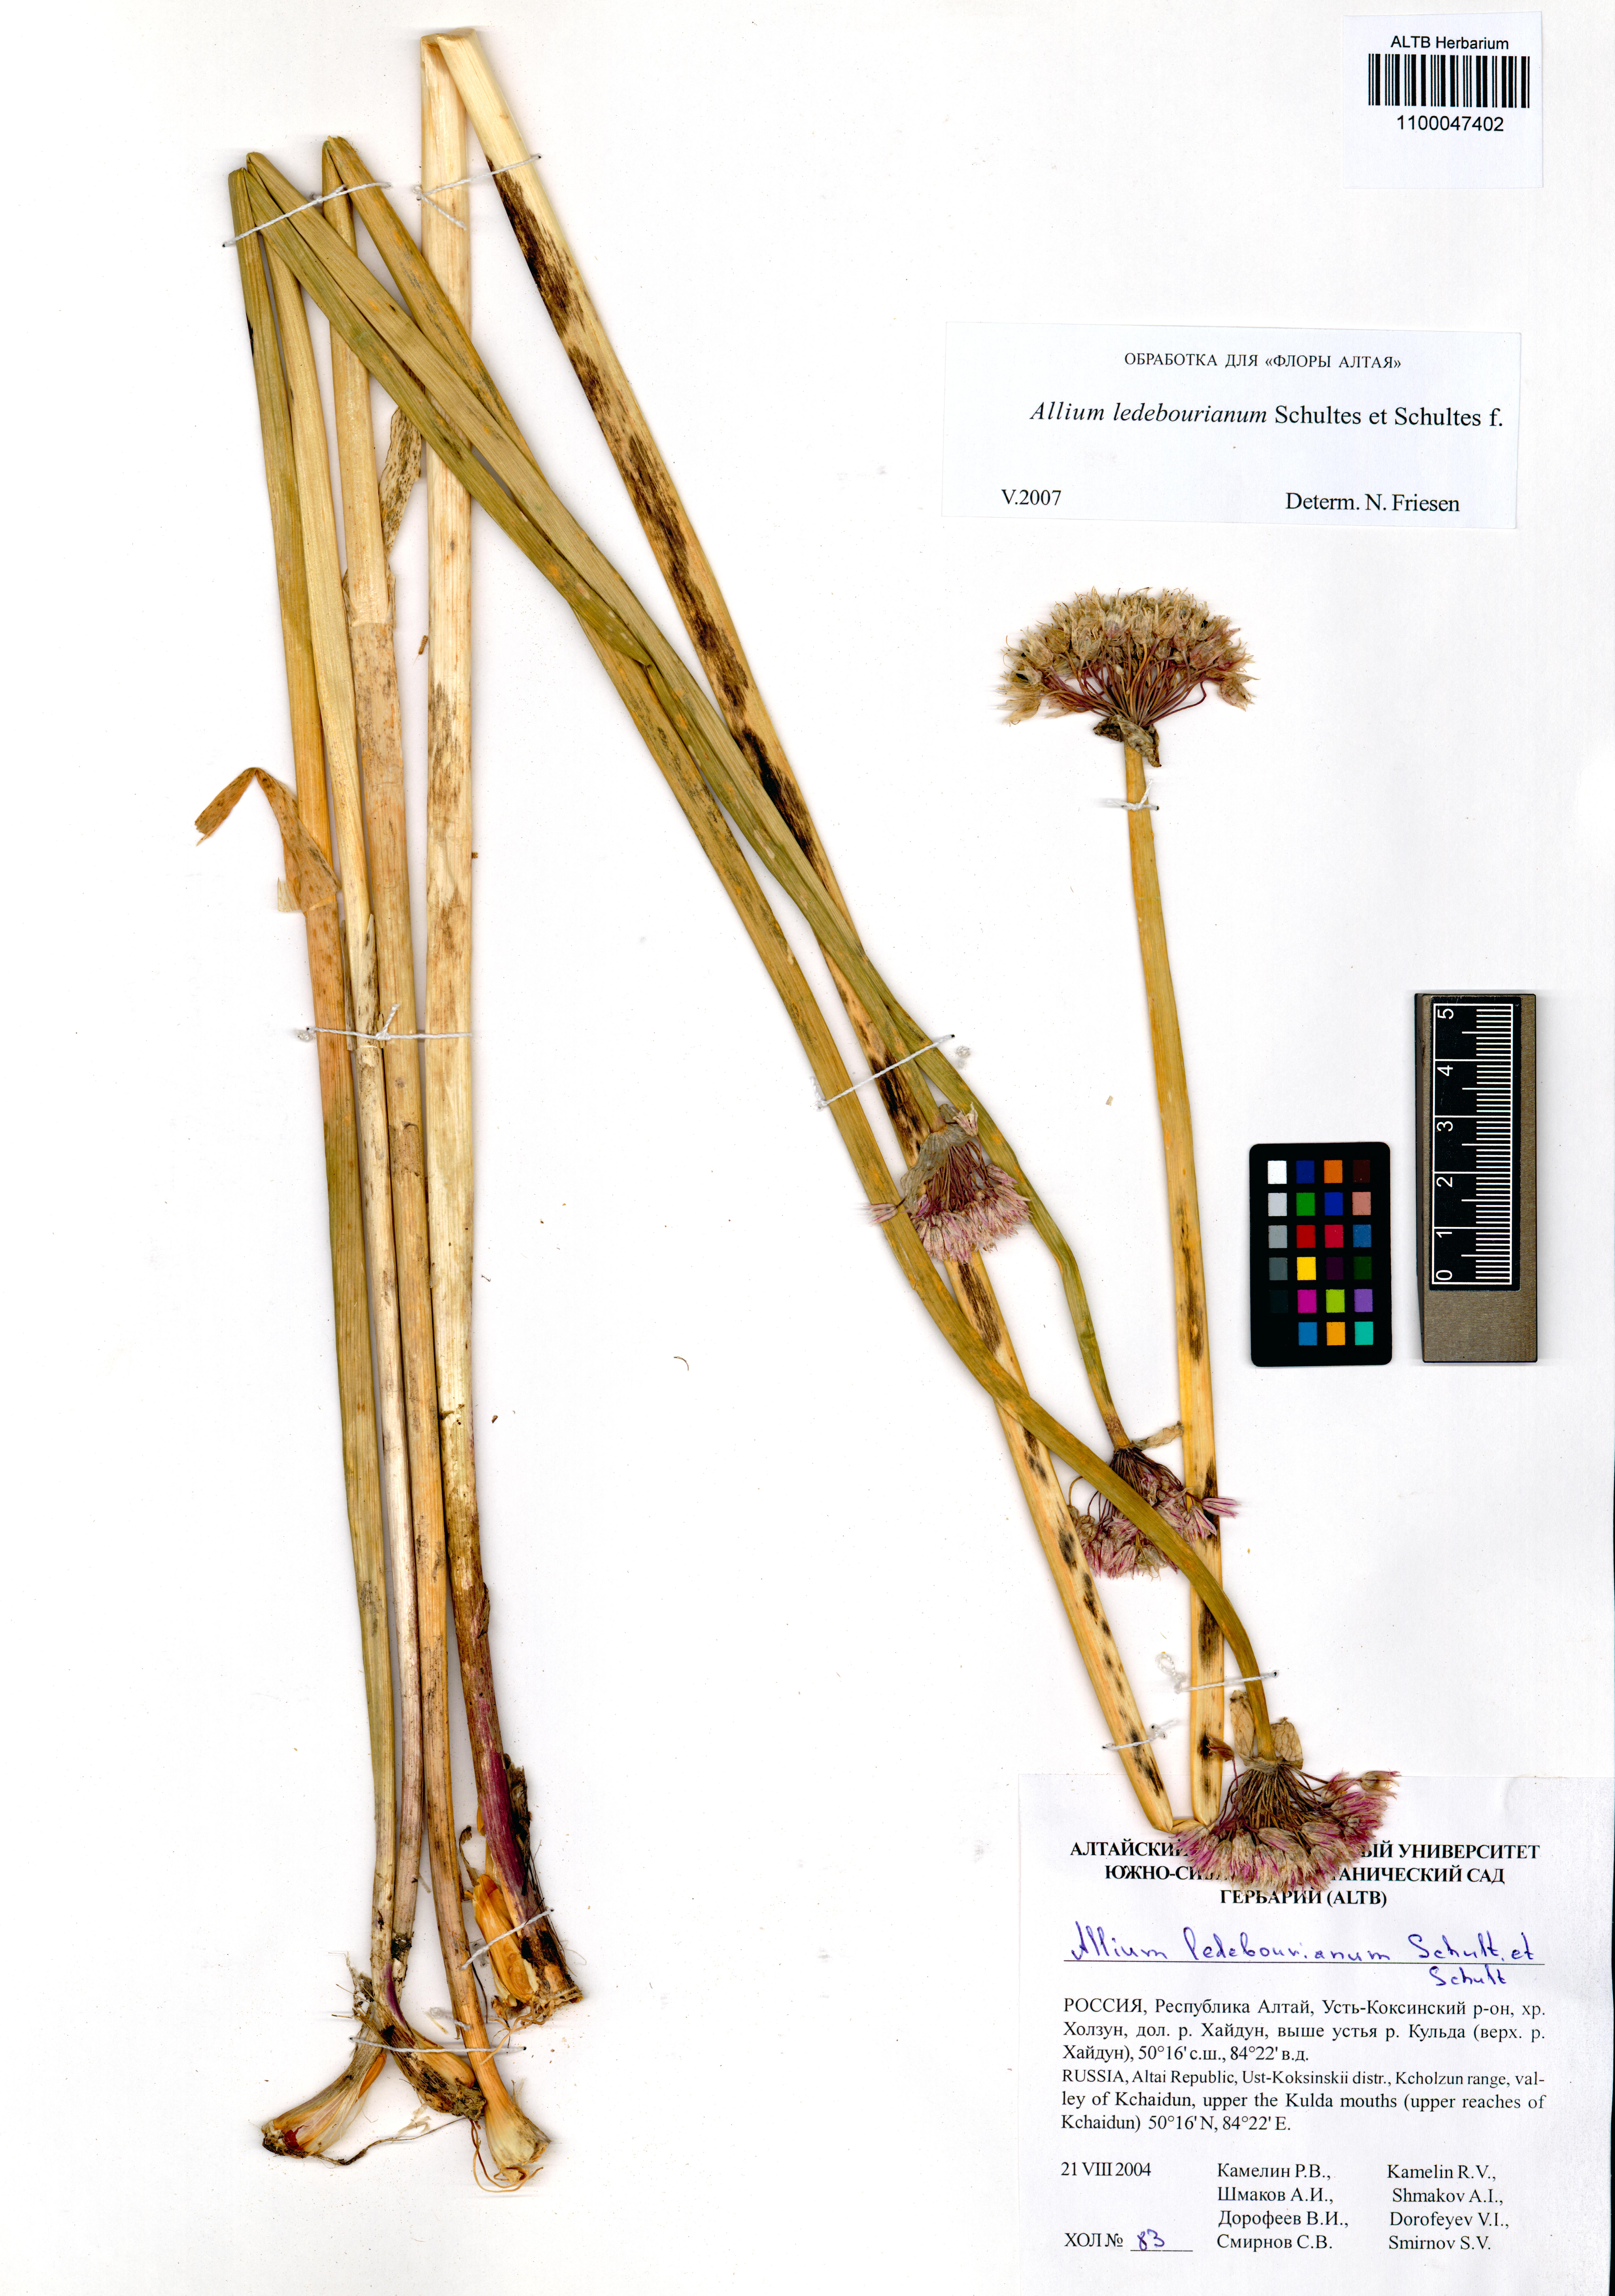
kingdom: Plantae
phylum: Tracheophyta
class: Liliopsida
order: Asparagales
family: Amaryllidaceae
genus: Allium
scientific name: Allium ledebourianum
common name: Ledebour chive
